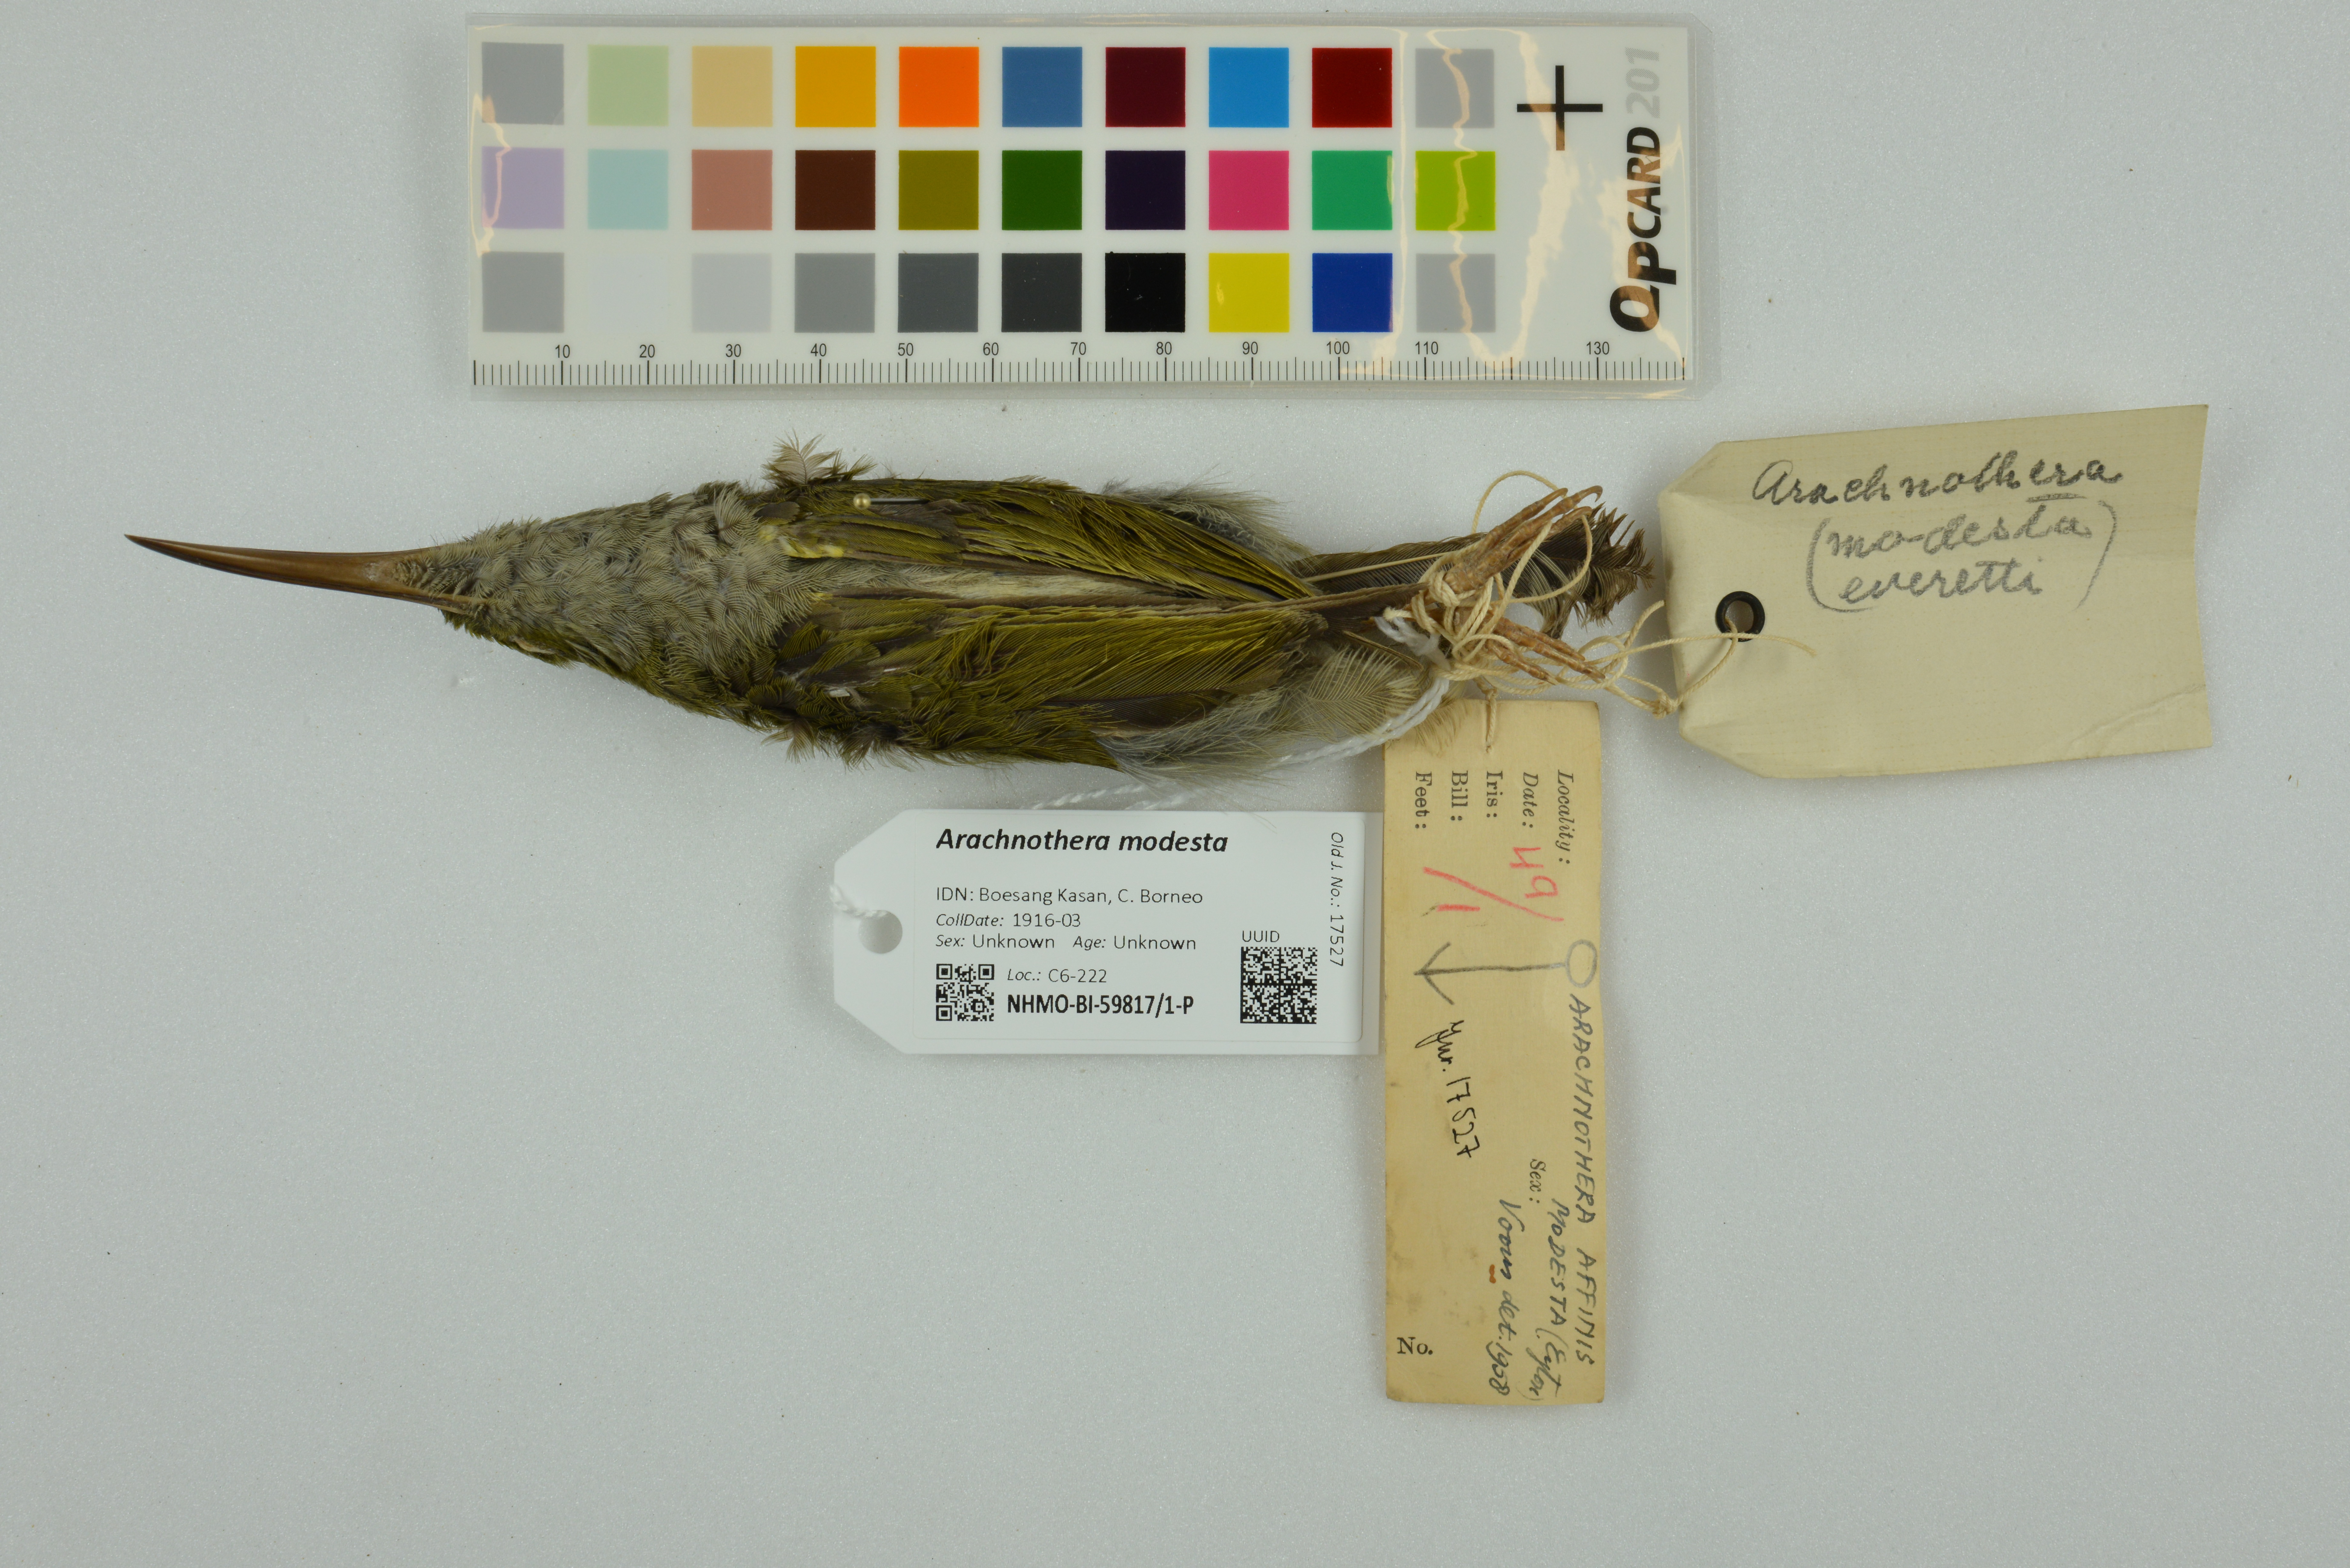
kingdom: Animalia
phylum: Chordata
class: Aves
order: Passeriformes
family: Nectariniidae
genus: Arachnothera
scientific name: Arachnothera modesta
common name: Grey-breasted spiderhunter
